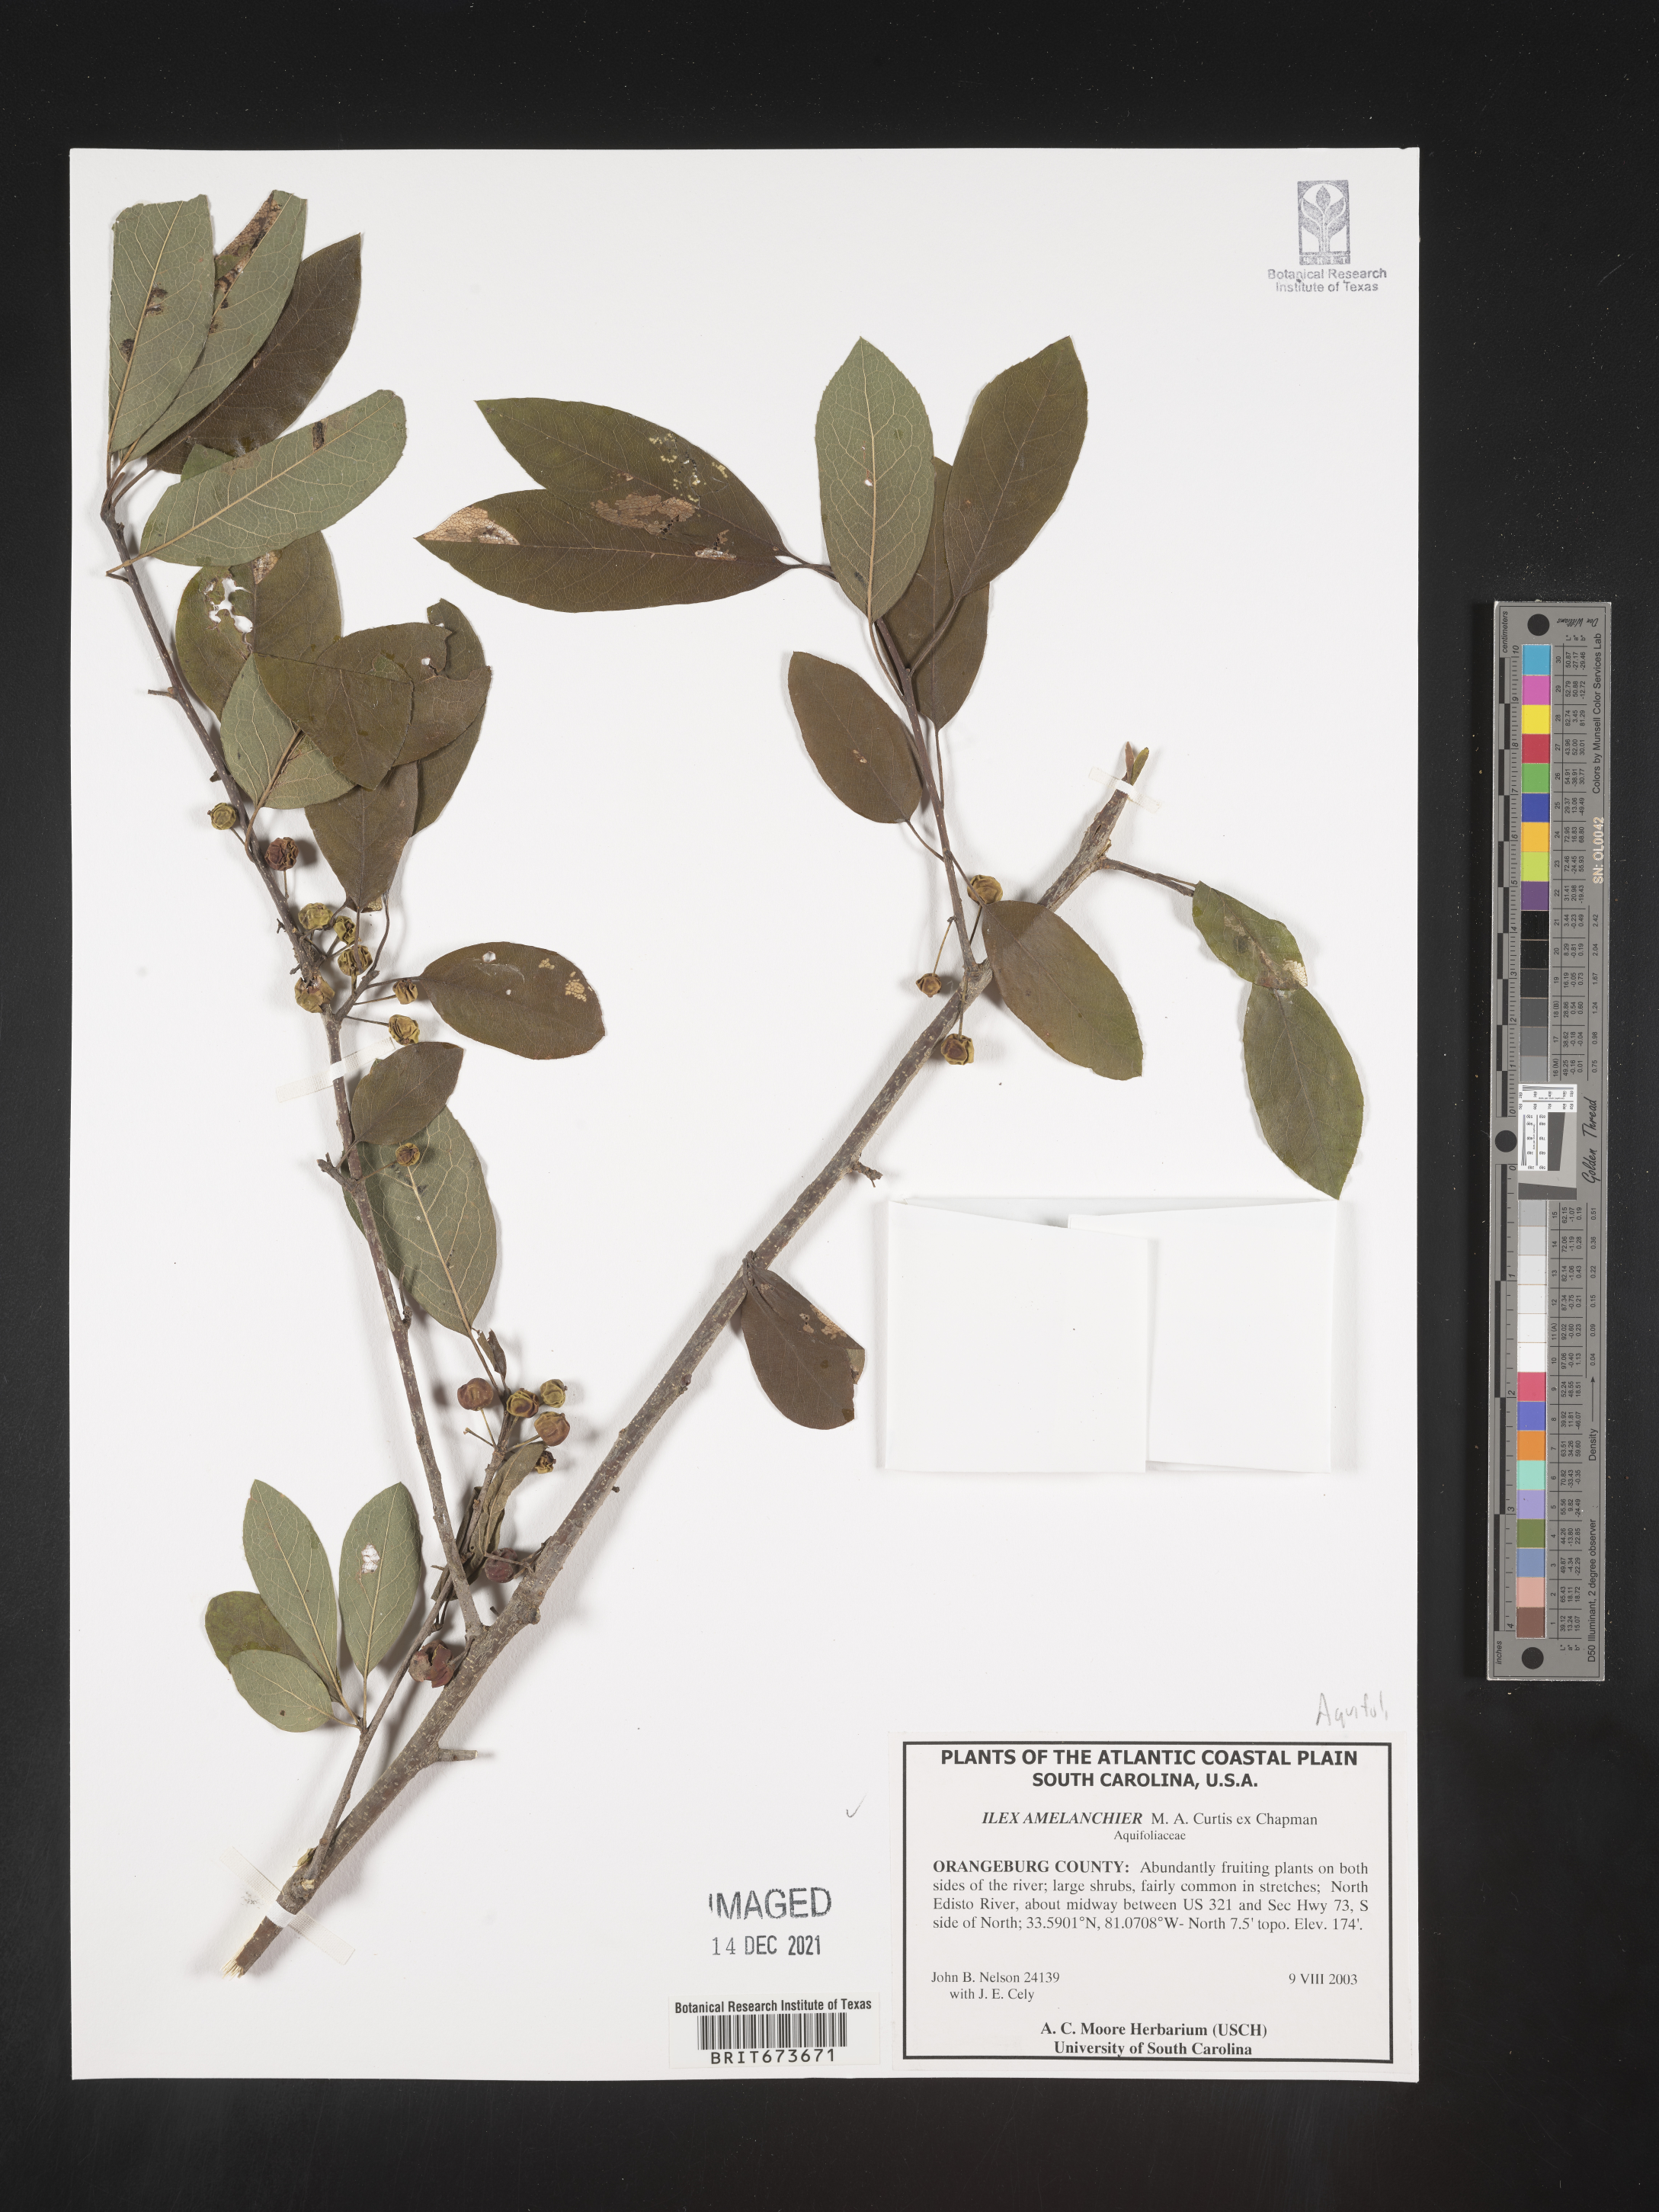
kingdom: Plantae
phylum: Tracheophyta
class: Magnoliopsida
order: Aquifoliales
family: Aquifoliaceae
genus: Ilex
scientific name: Ilex
